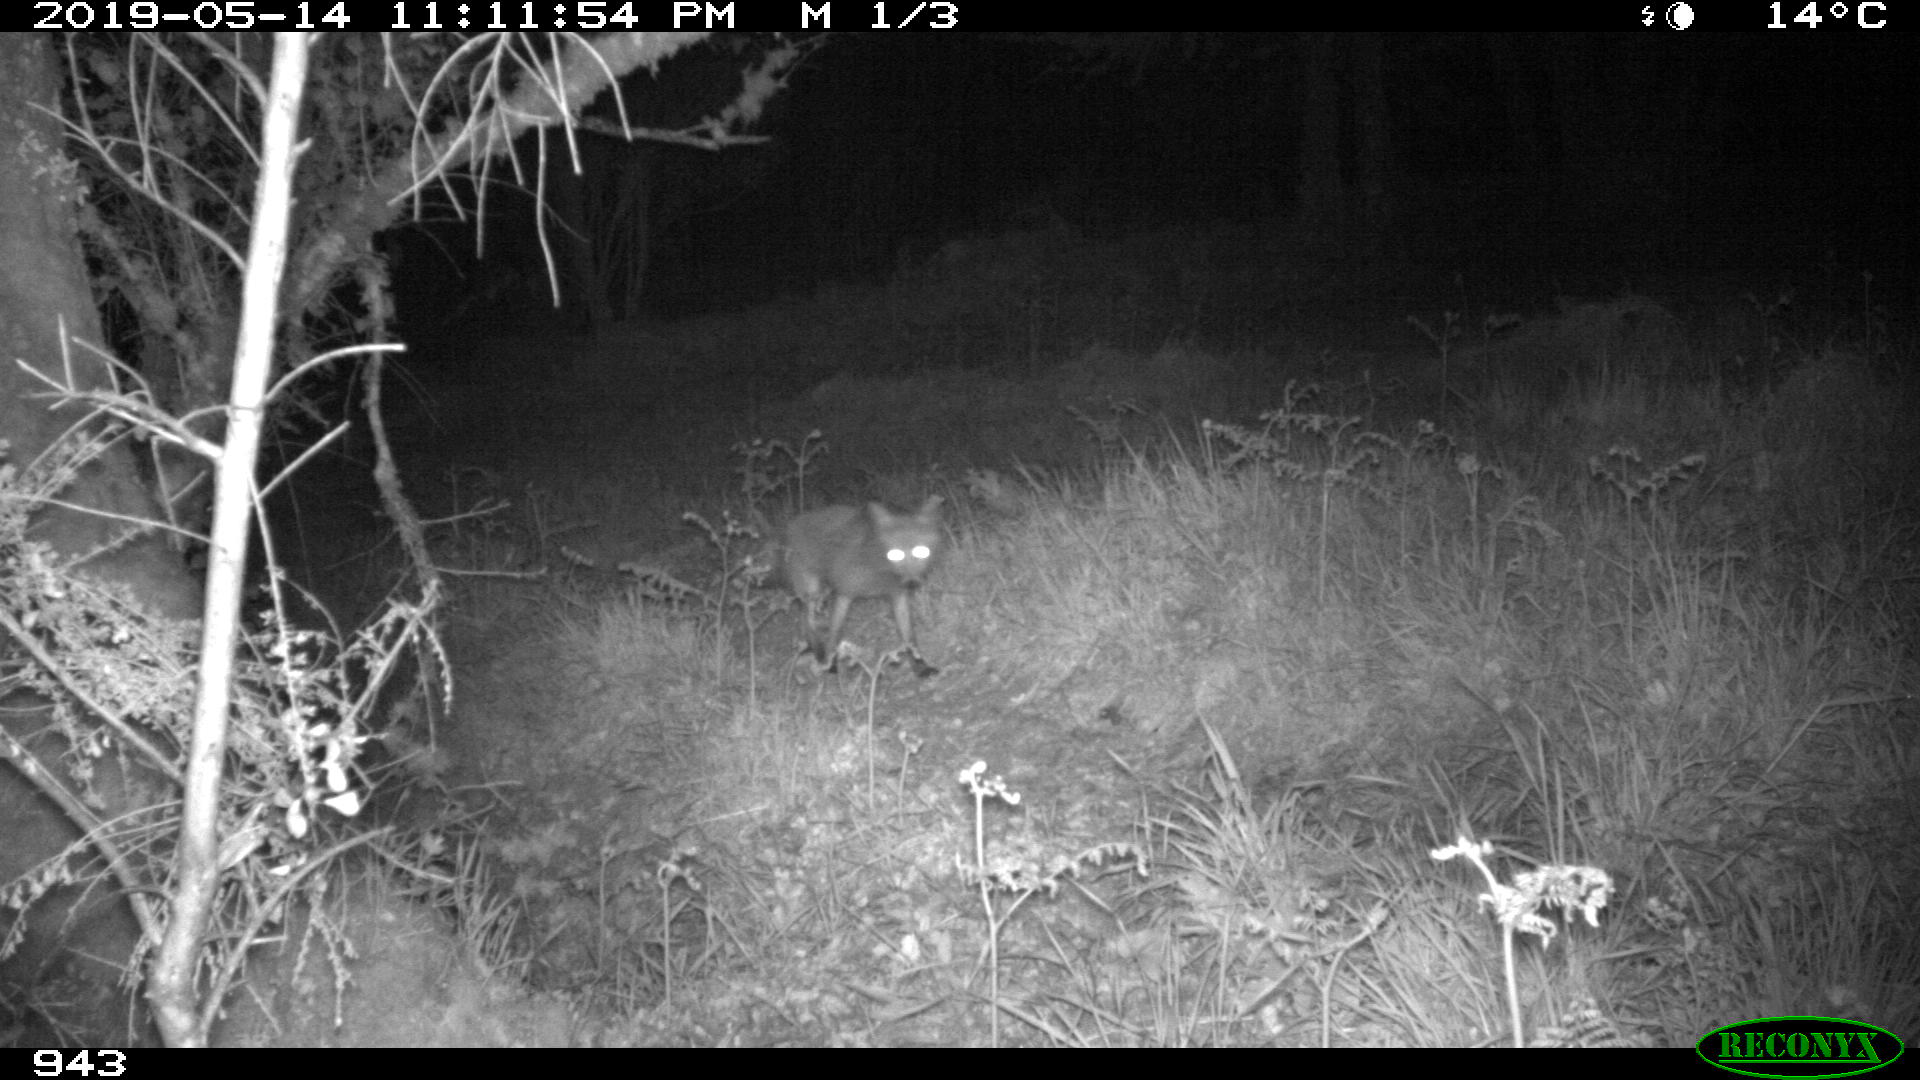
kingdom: Animalia
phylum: Chordata
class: Mammalia
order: Carnivora
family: Canidae
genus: Vulpes
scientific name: Vulpes vulpes
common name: Red fox
